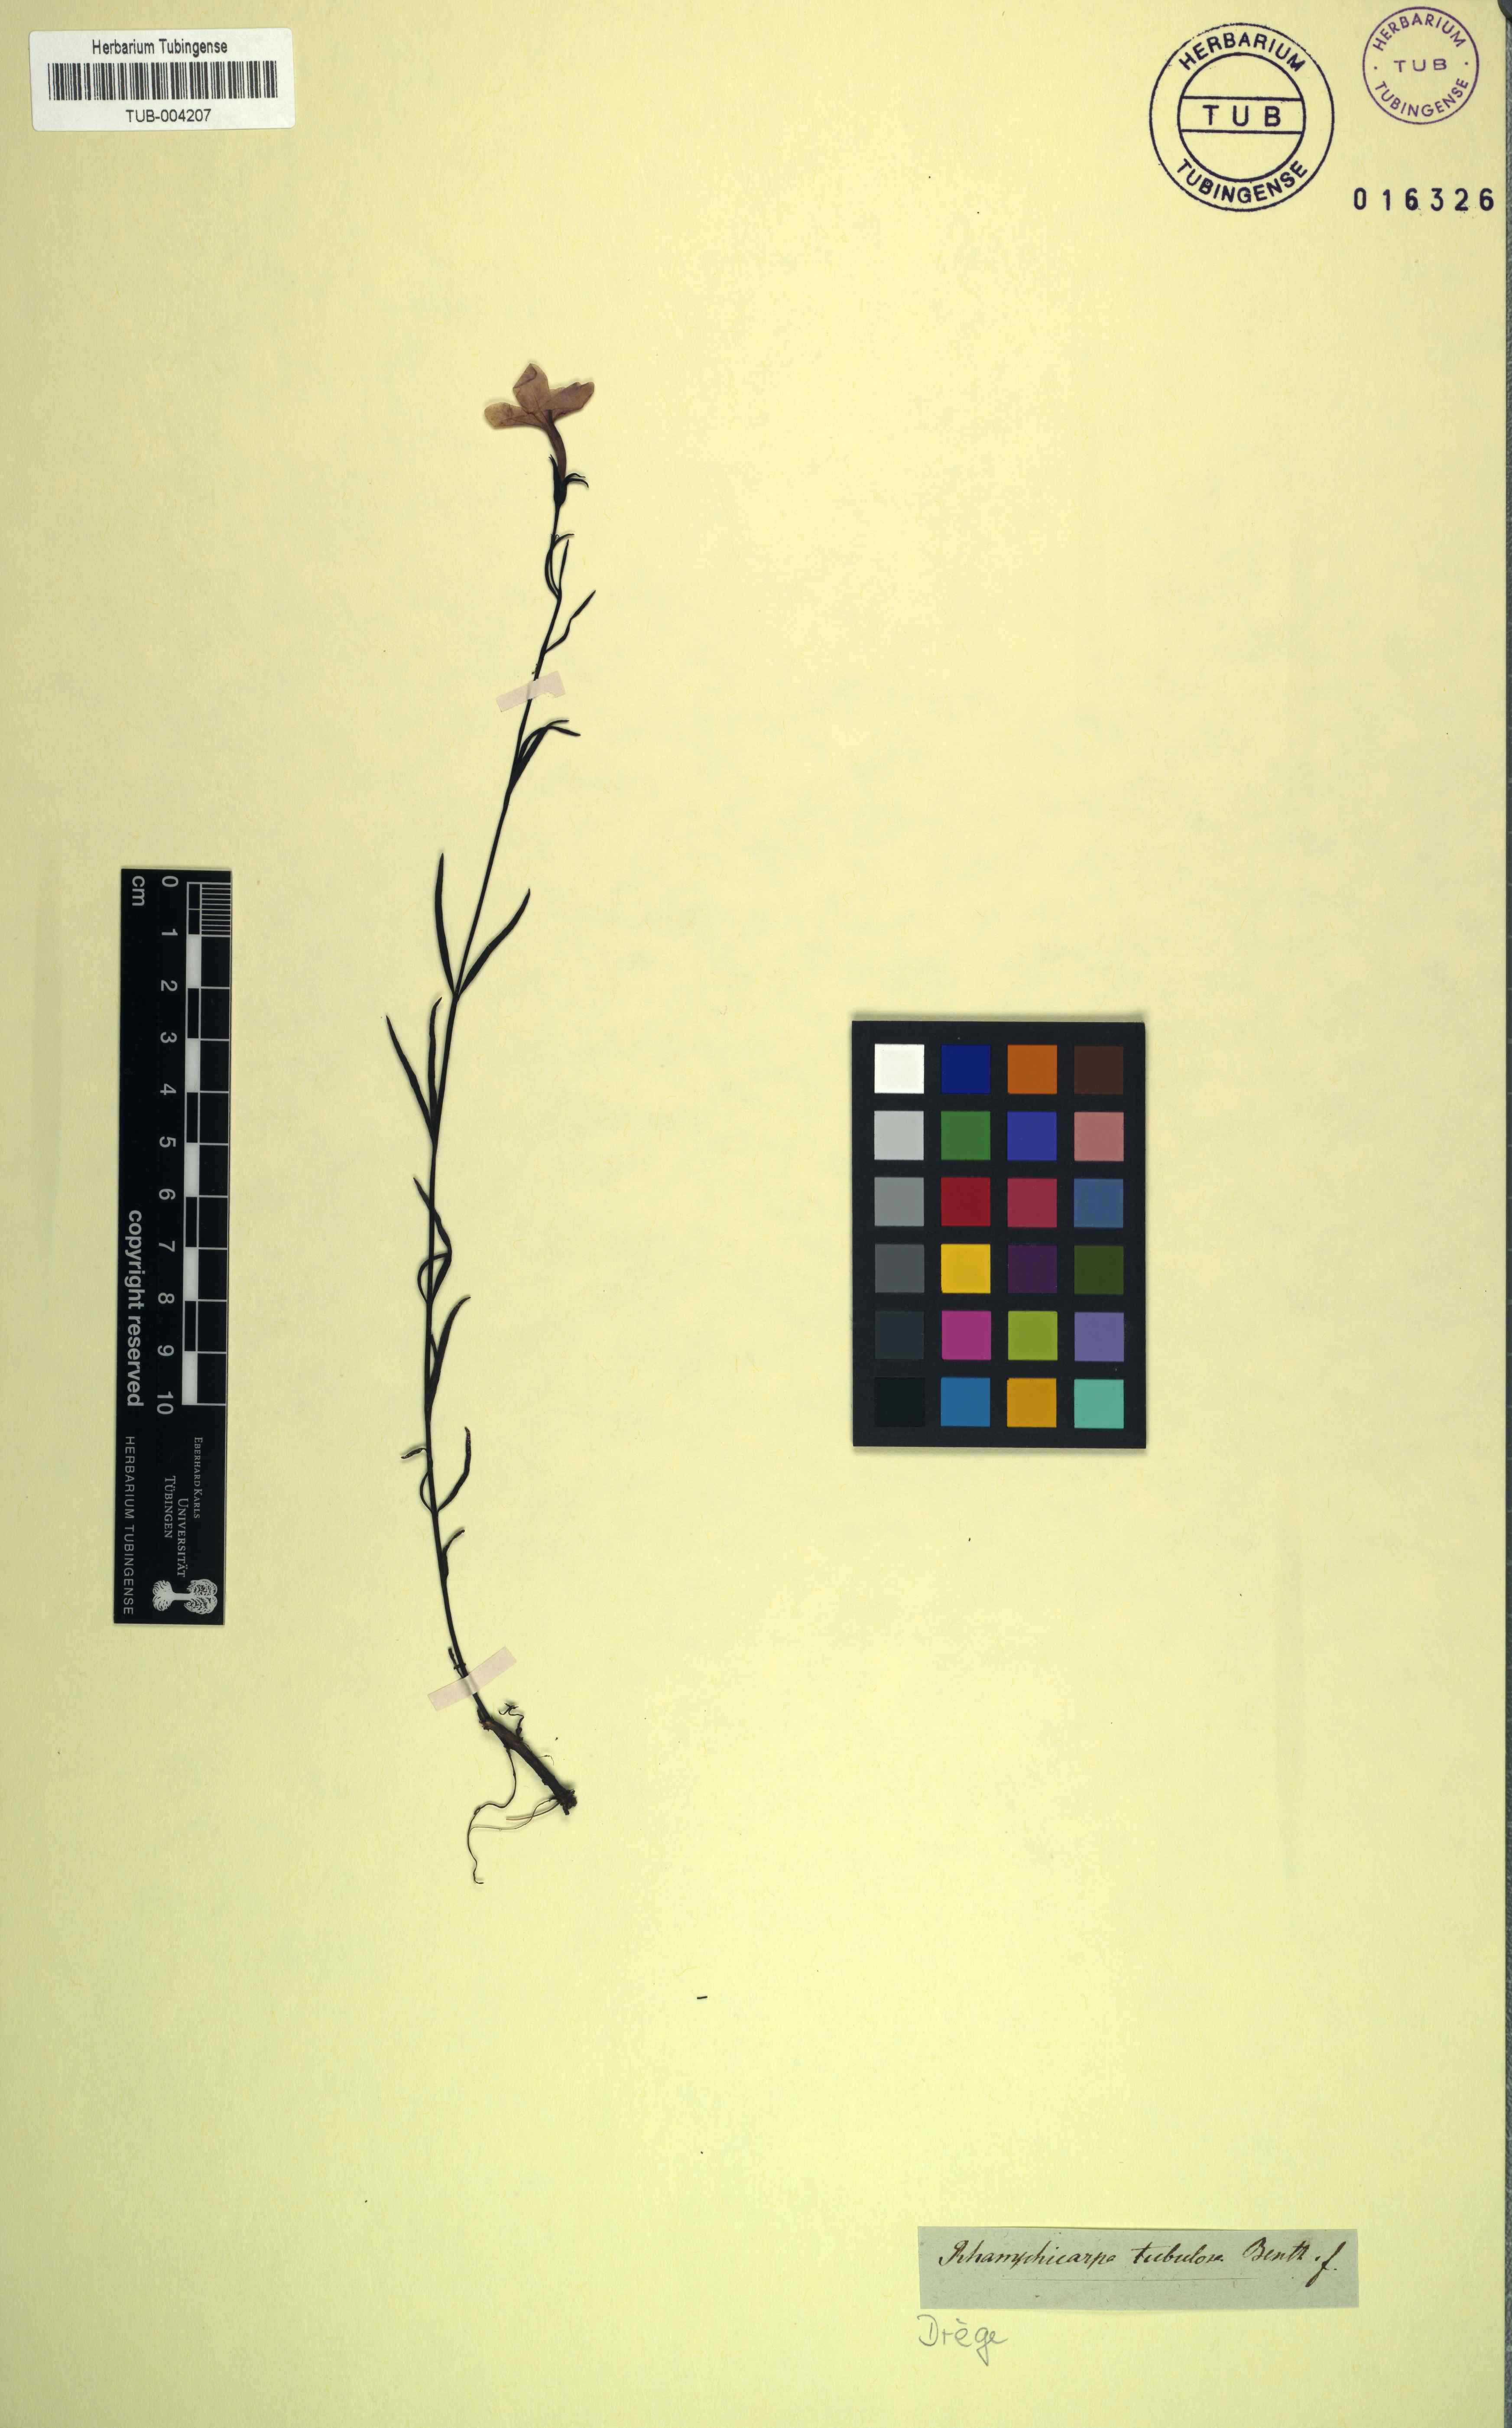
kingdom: Plantae
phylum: Tracheophyta
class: Magnoliopsida
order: Lamiales
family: Orobanchaceae
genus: Cycnium
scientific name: Cycnium tubulosum
